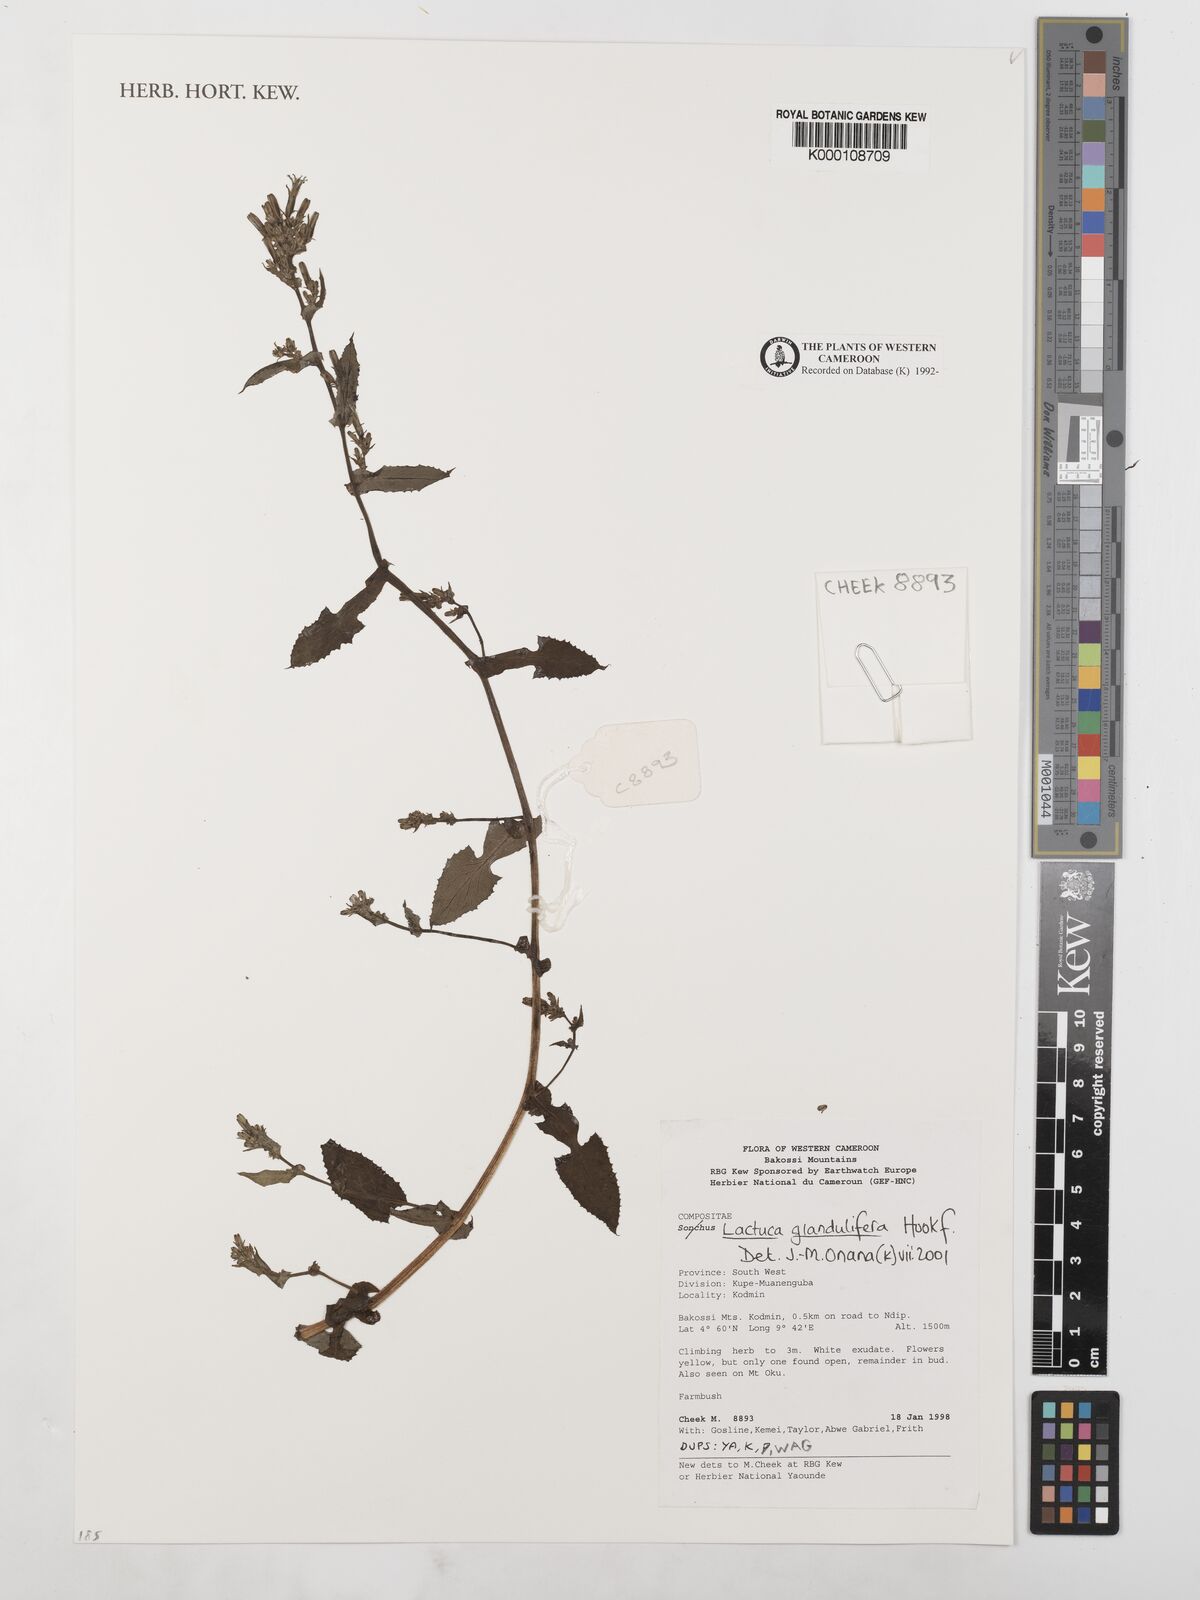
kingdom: Plantae
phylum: Tracheophyta
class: Magnoliopsida
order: Asterales
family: Asteraceae
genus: Lactuca
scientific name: Lactuca glandulifera
